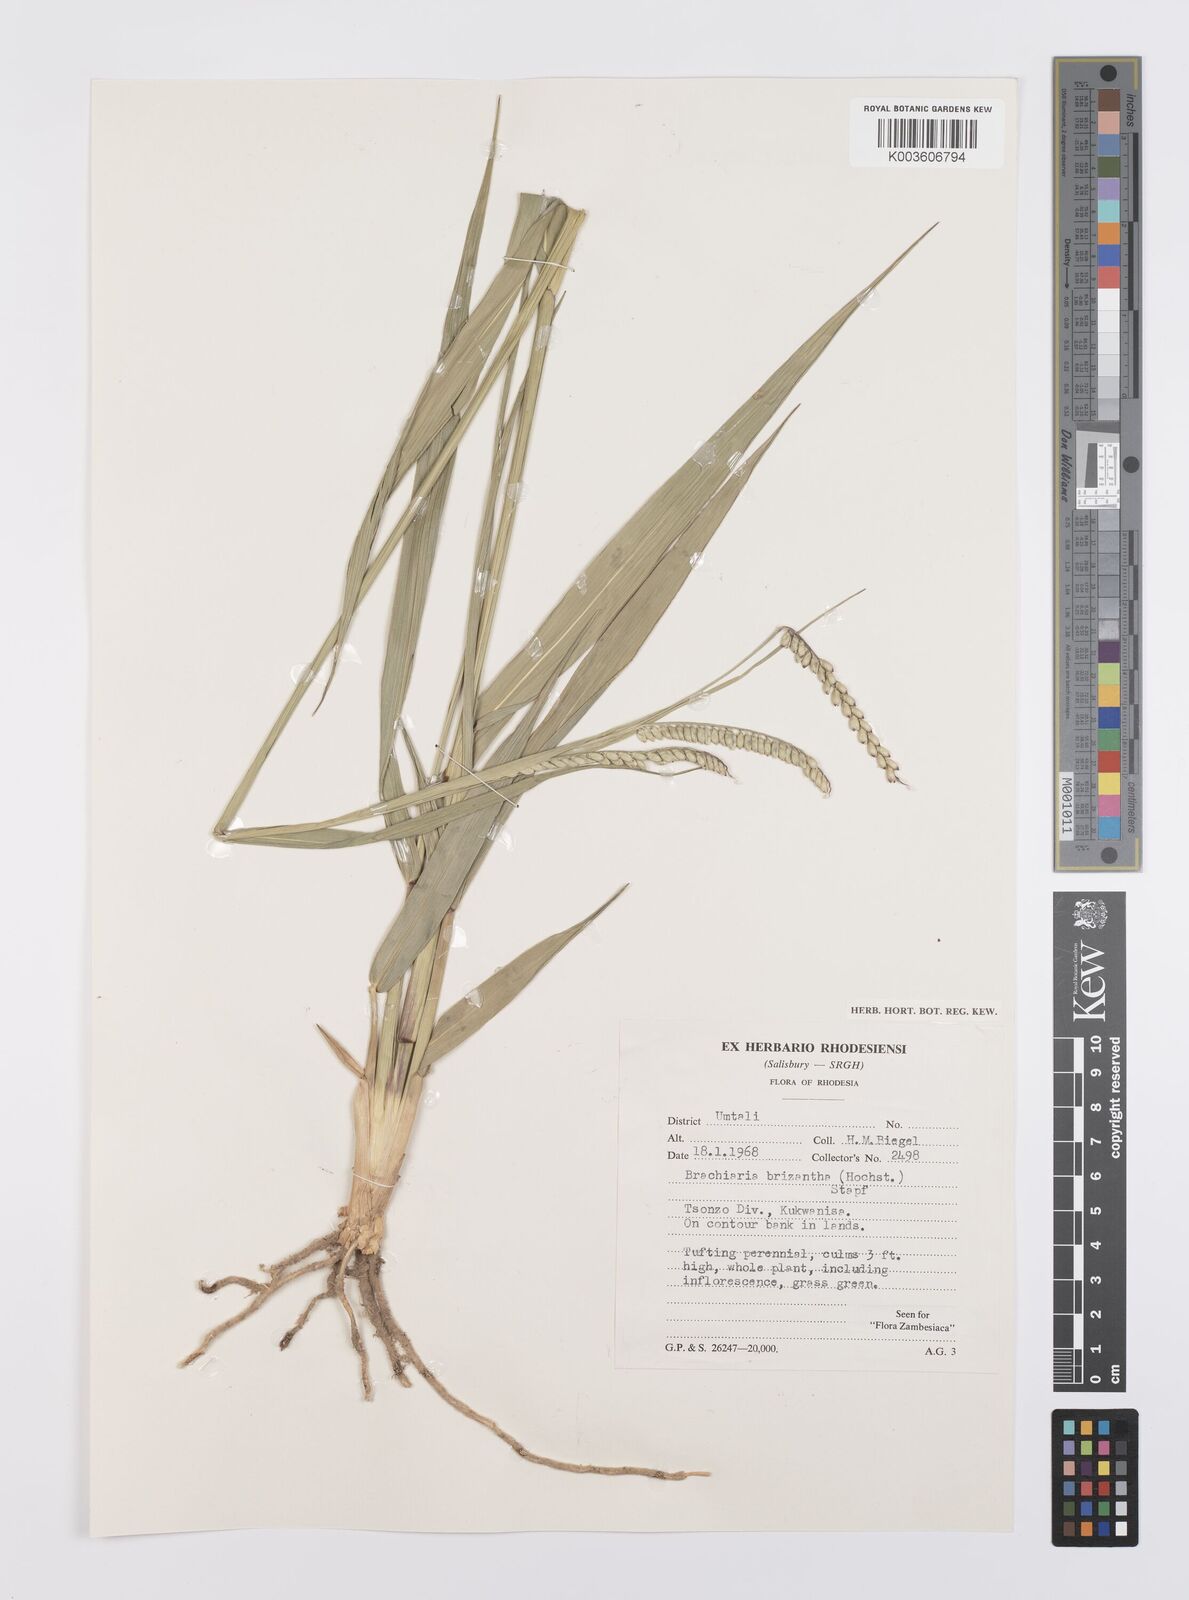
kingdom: Plantae
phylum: Tracheophyta
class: Liliopsida
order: Poales
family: Poaceae
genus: Urochloa
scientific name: Urochloa brizantha
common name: Palisade signalgrass
